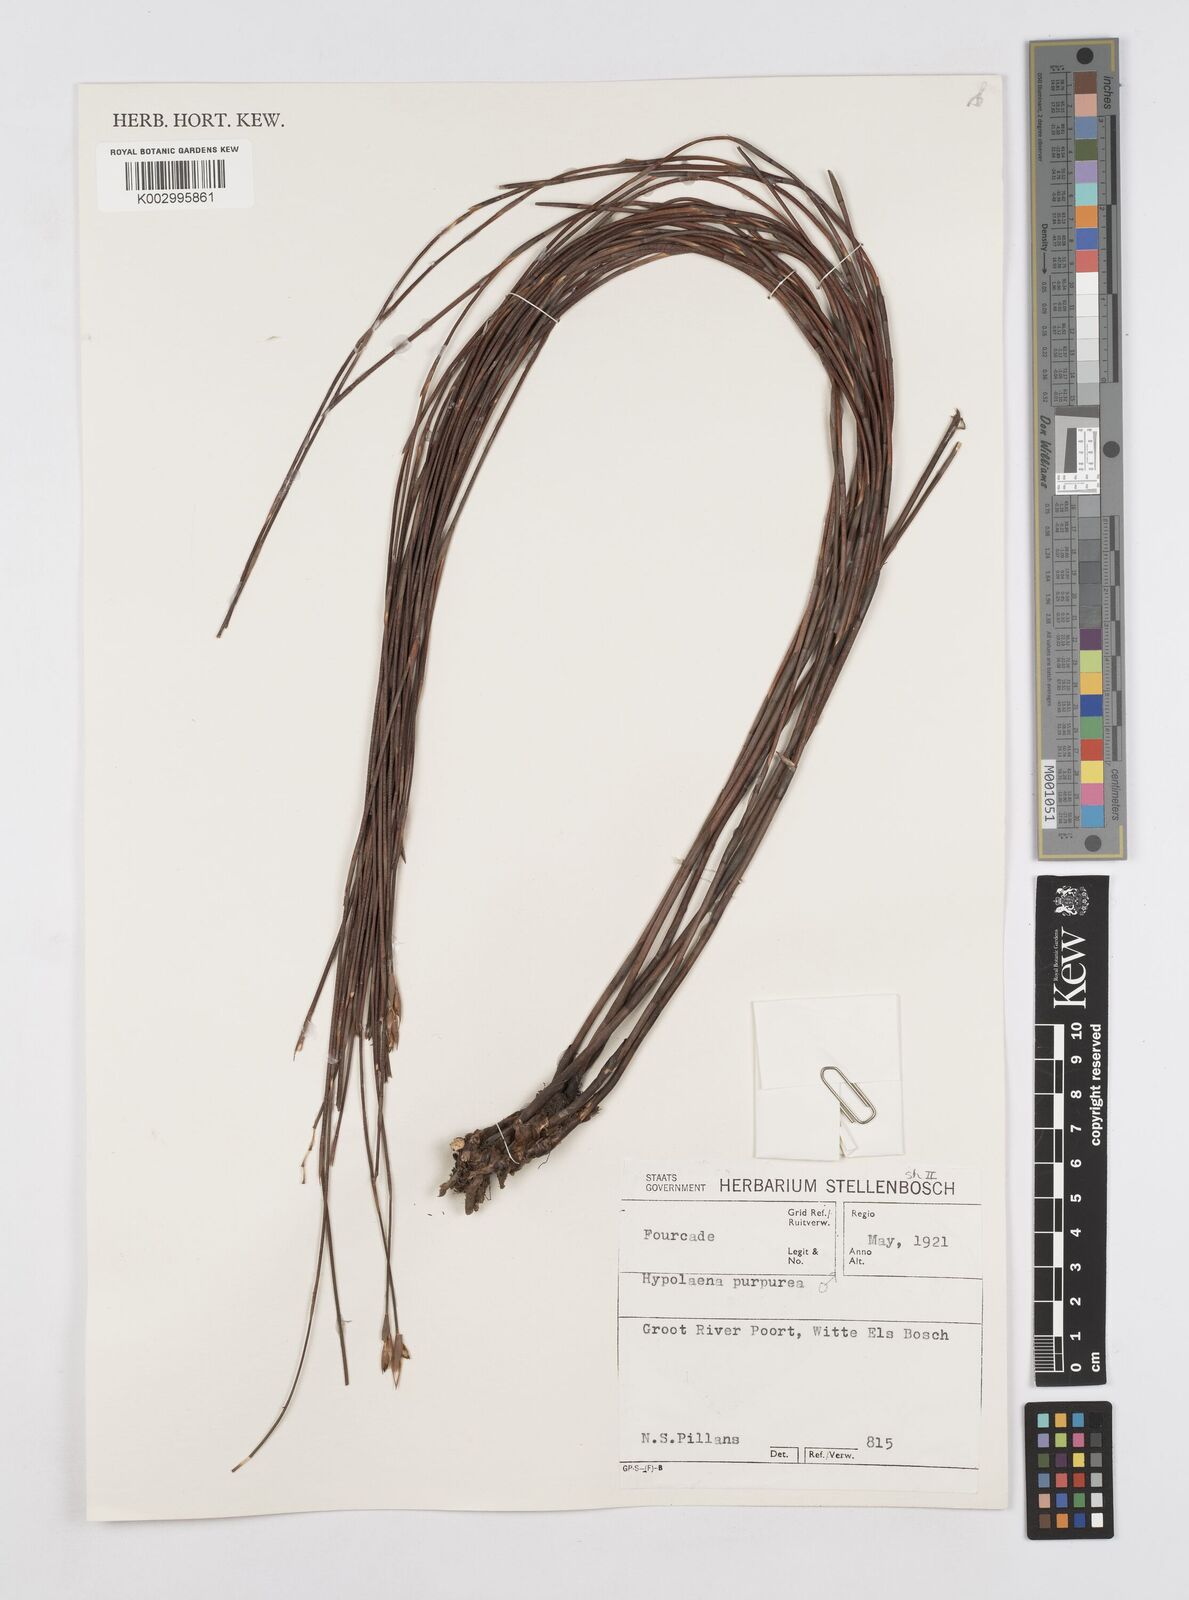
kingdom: Plantae
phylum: Tracheophyta
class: Liliopsida
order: Poales
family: Restionaceae
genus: Mastersiella
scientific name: Mastersiella purpurea
